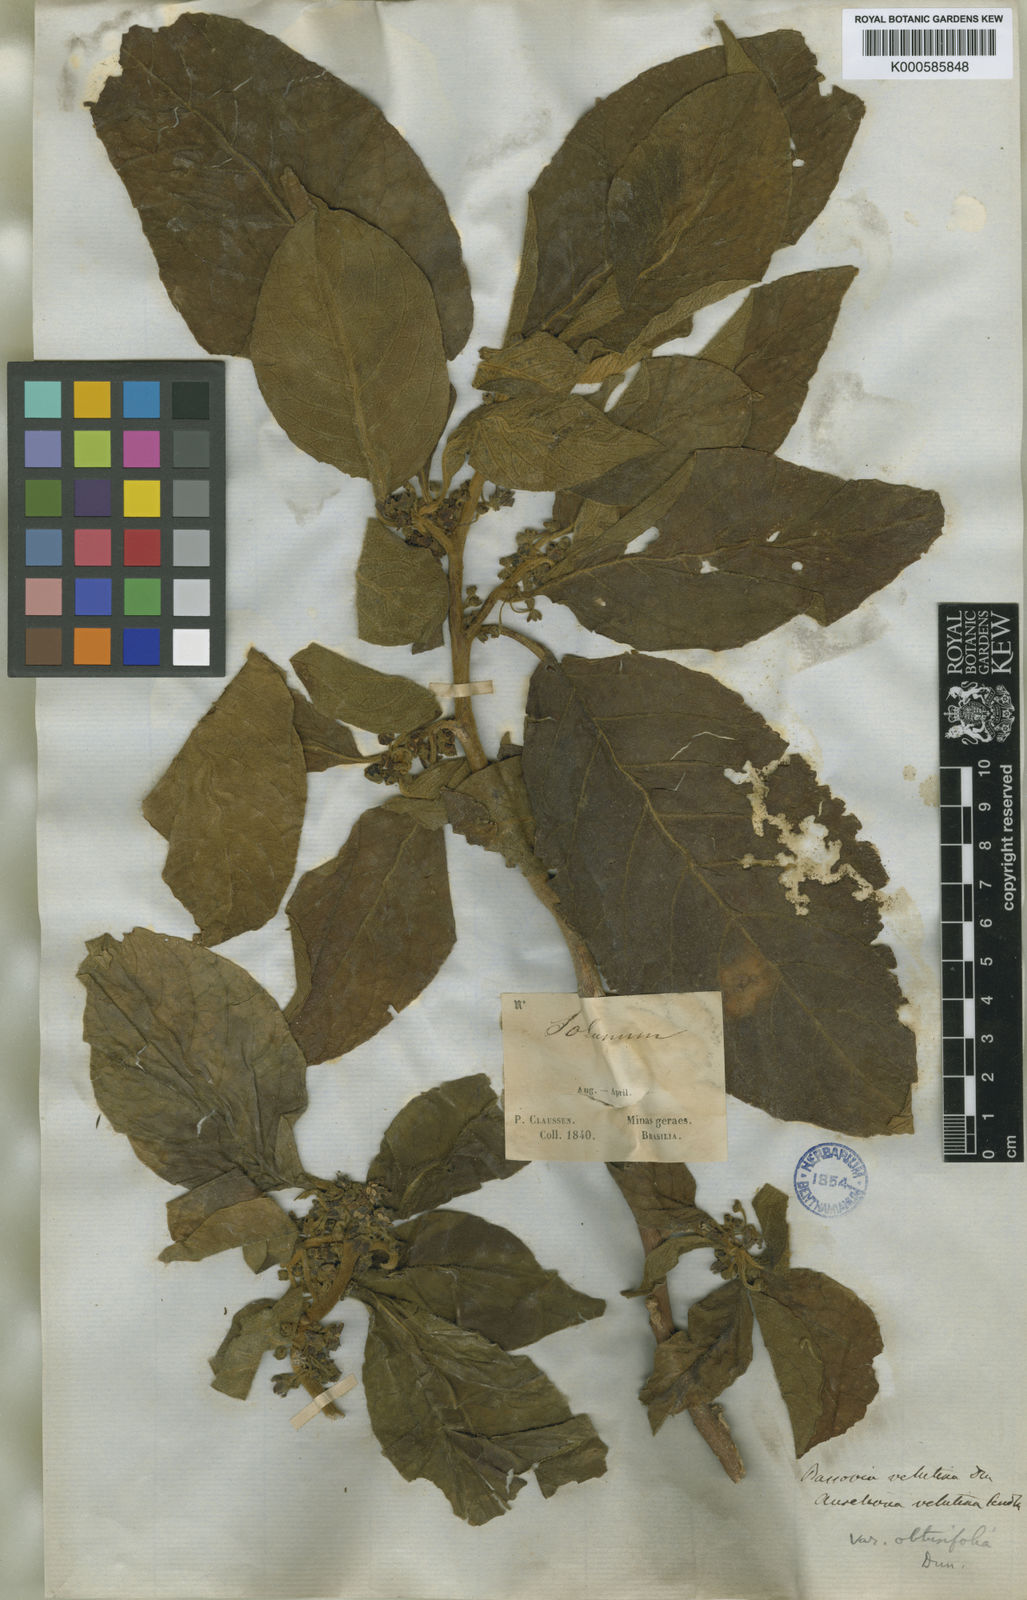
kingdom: Plantae
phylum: Tracheophyta
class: Magnoliopsida
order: Solanales
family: Solanaceae
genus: Athenaea
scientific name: Athenaea velutina
